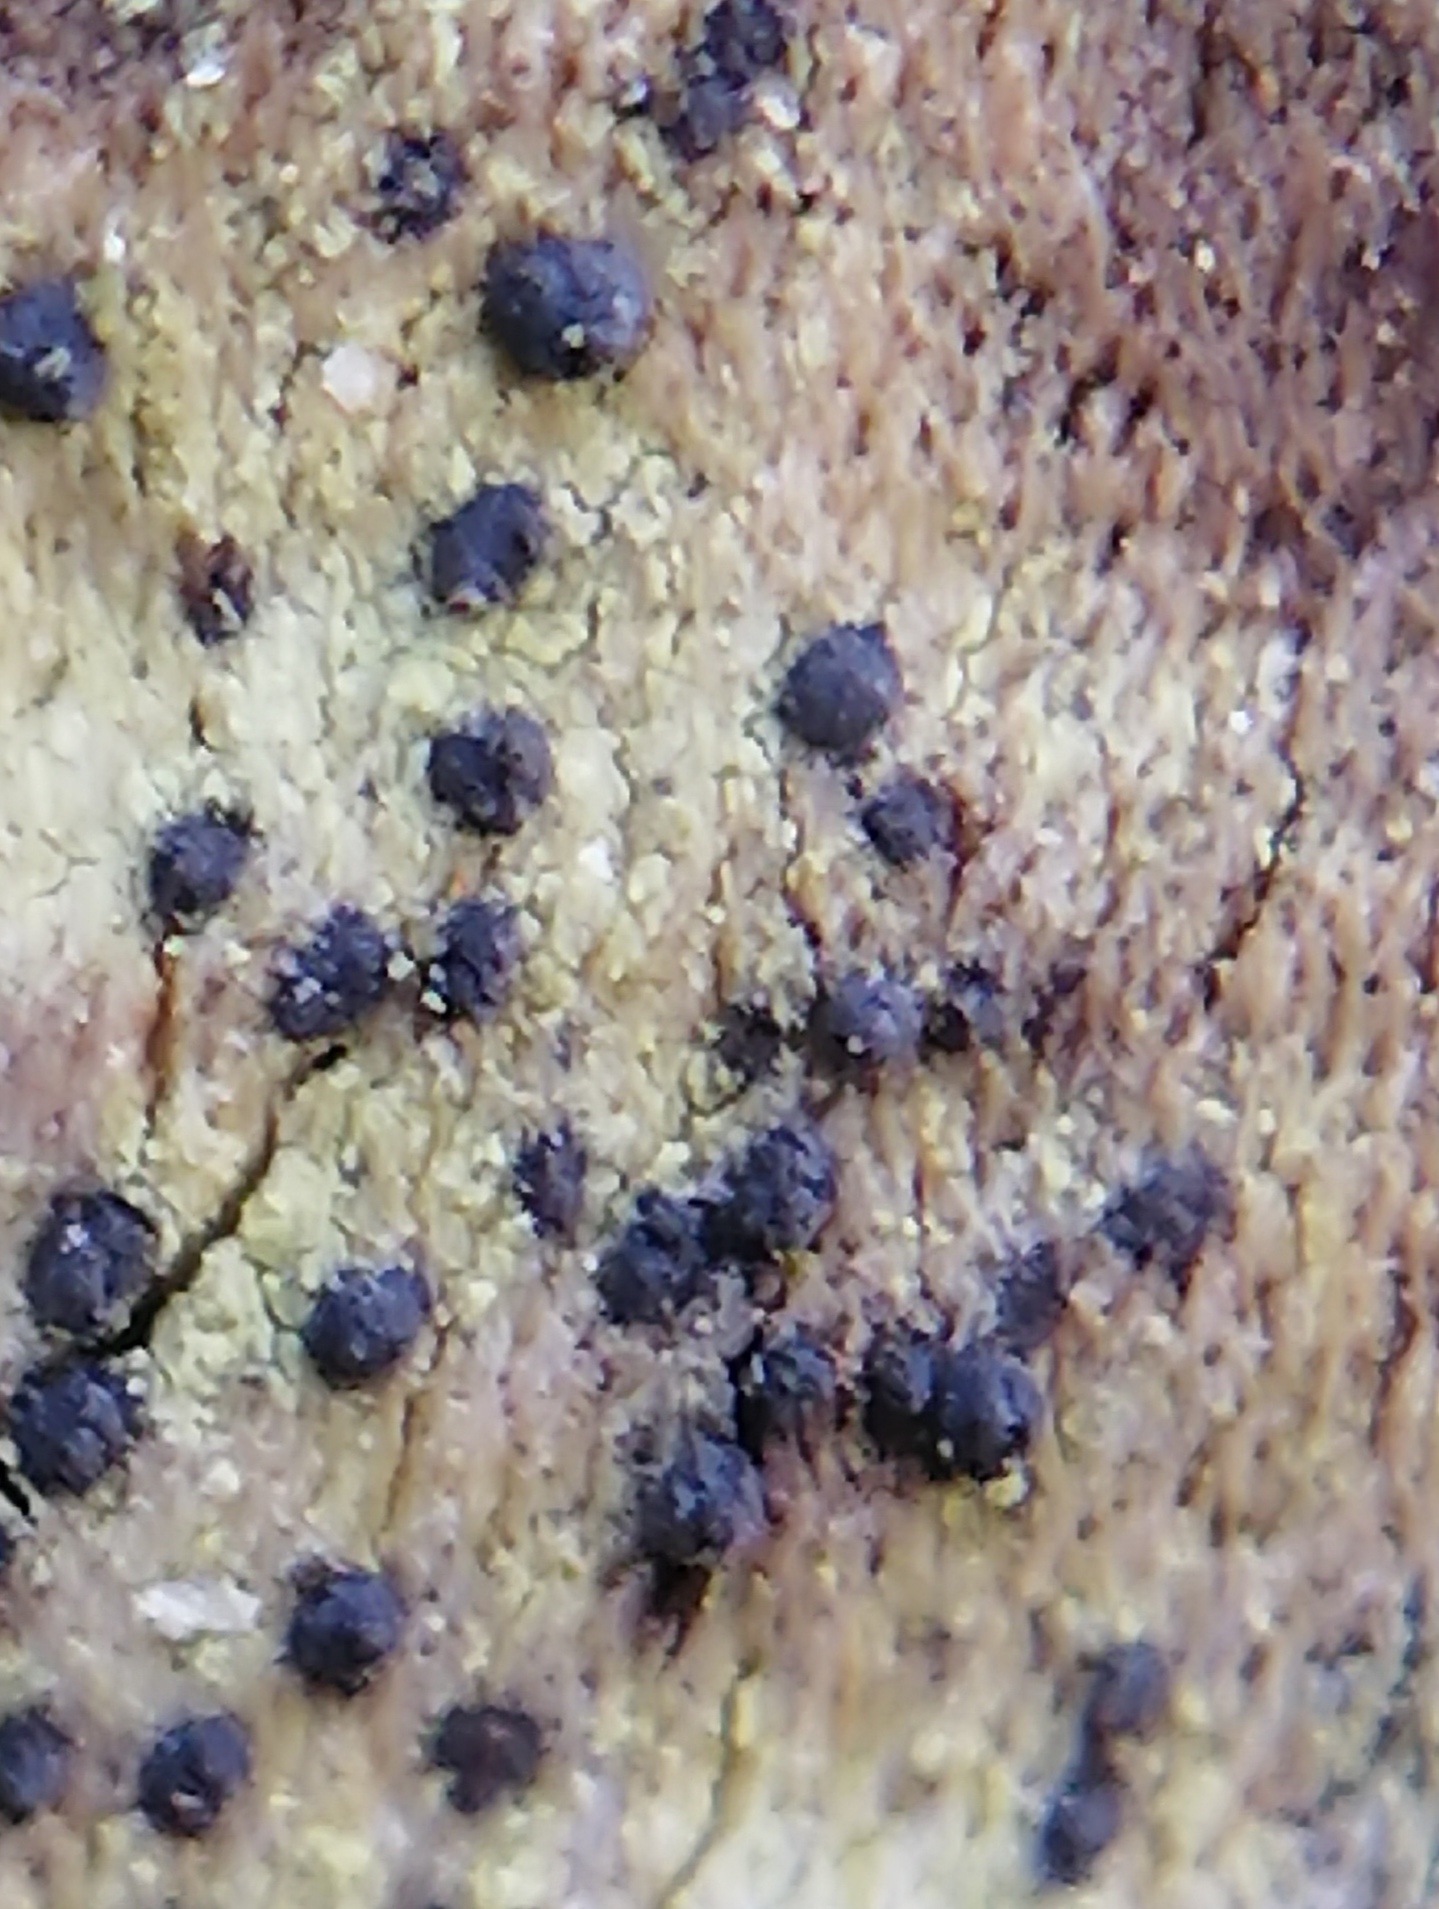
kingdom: Fungi
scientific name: Fungi
